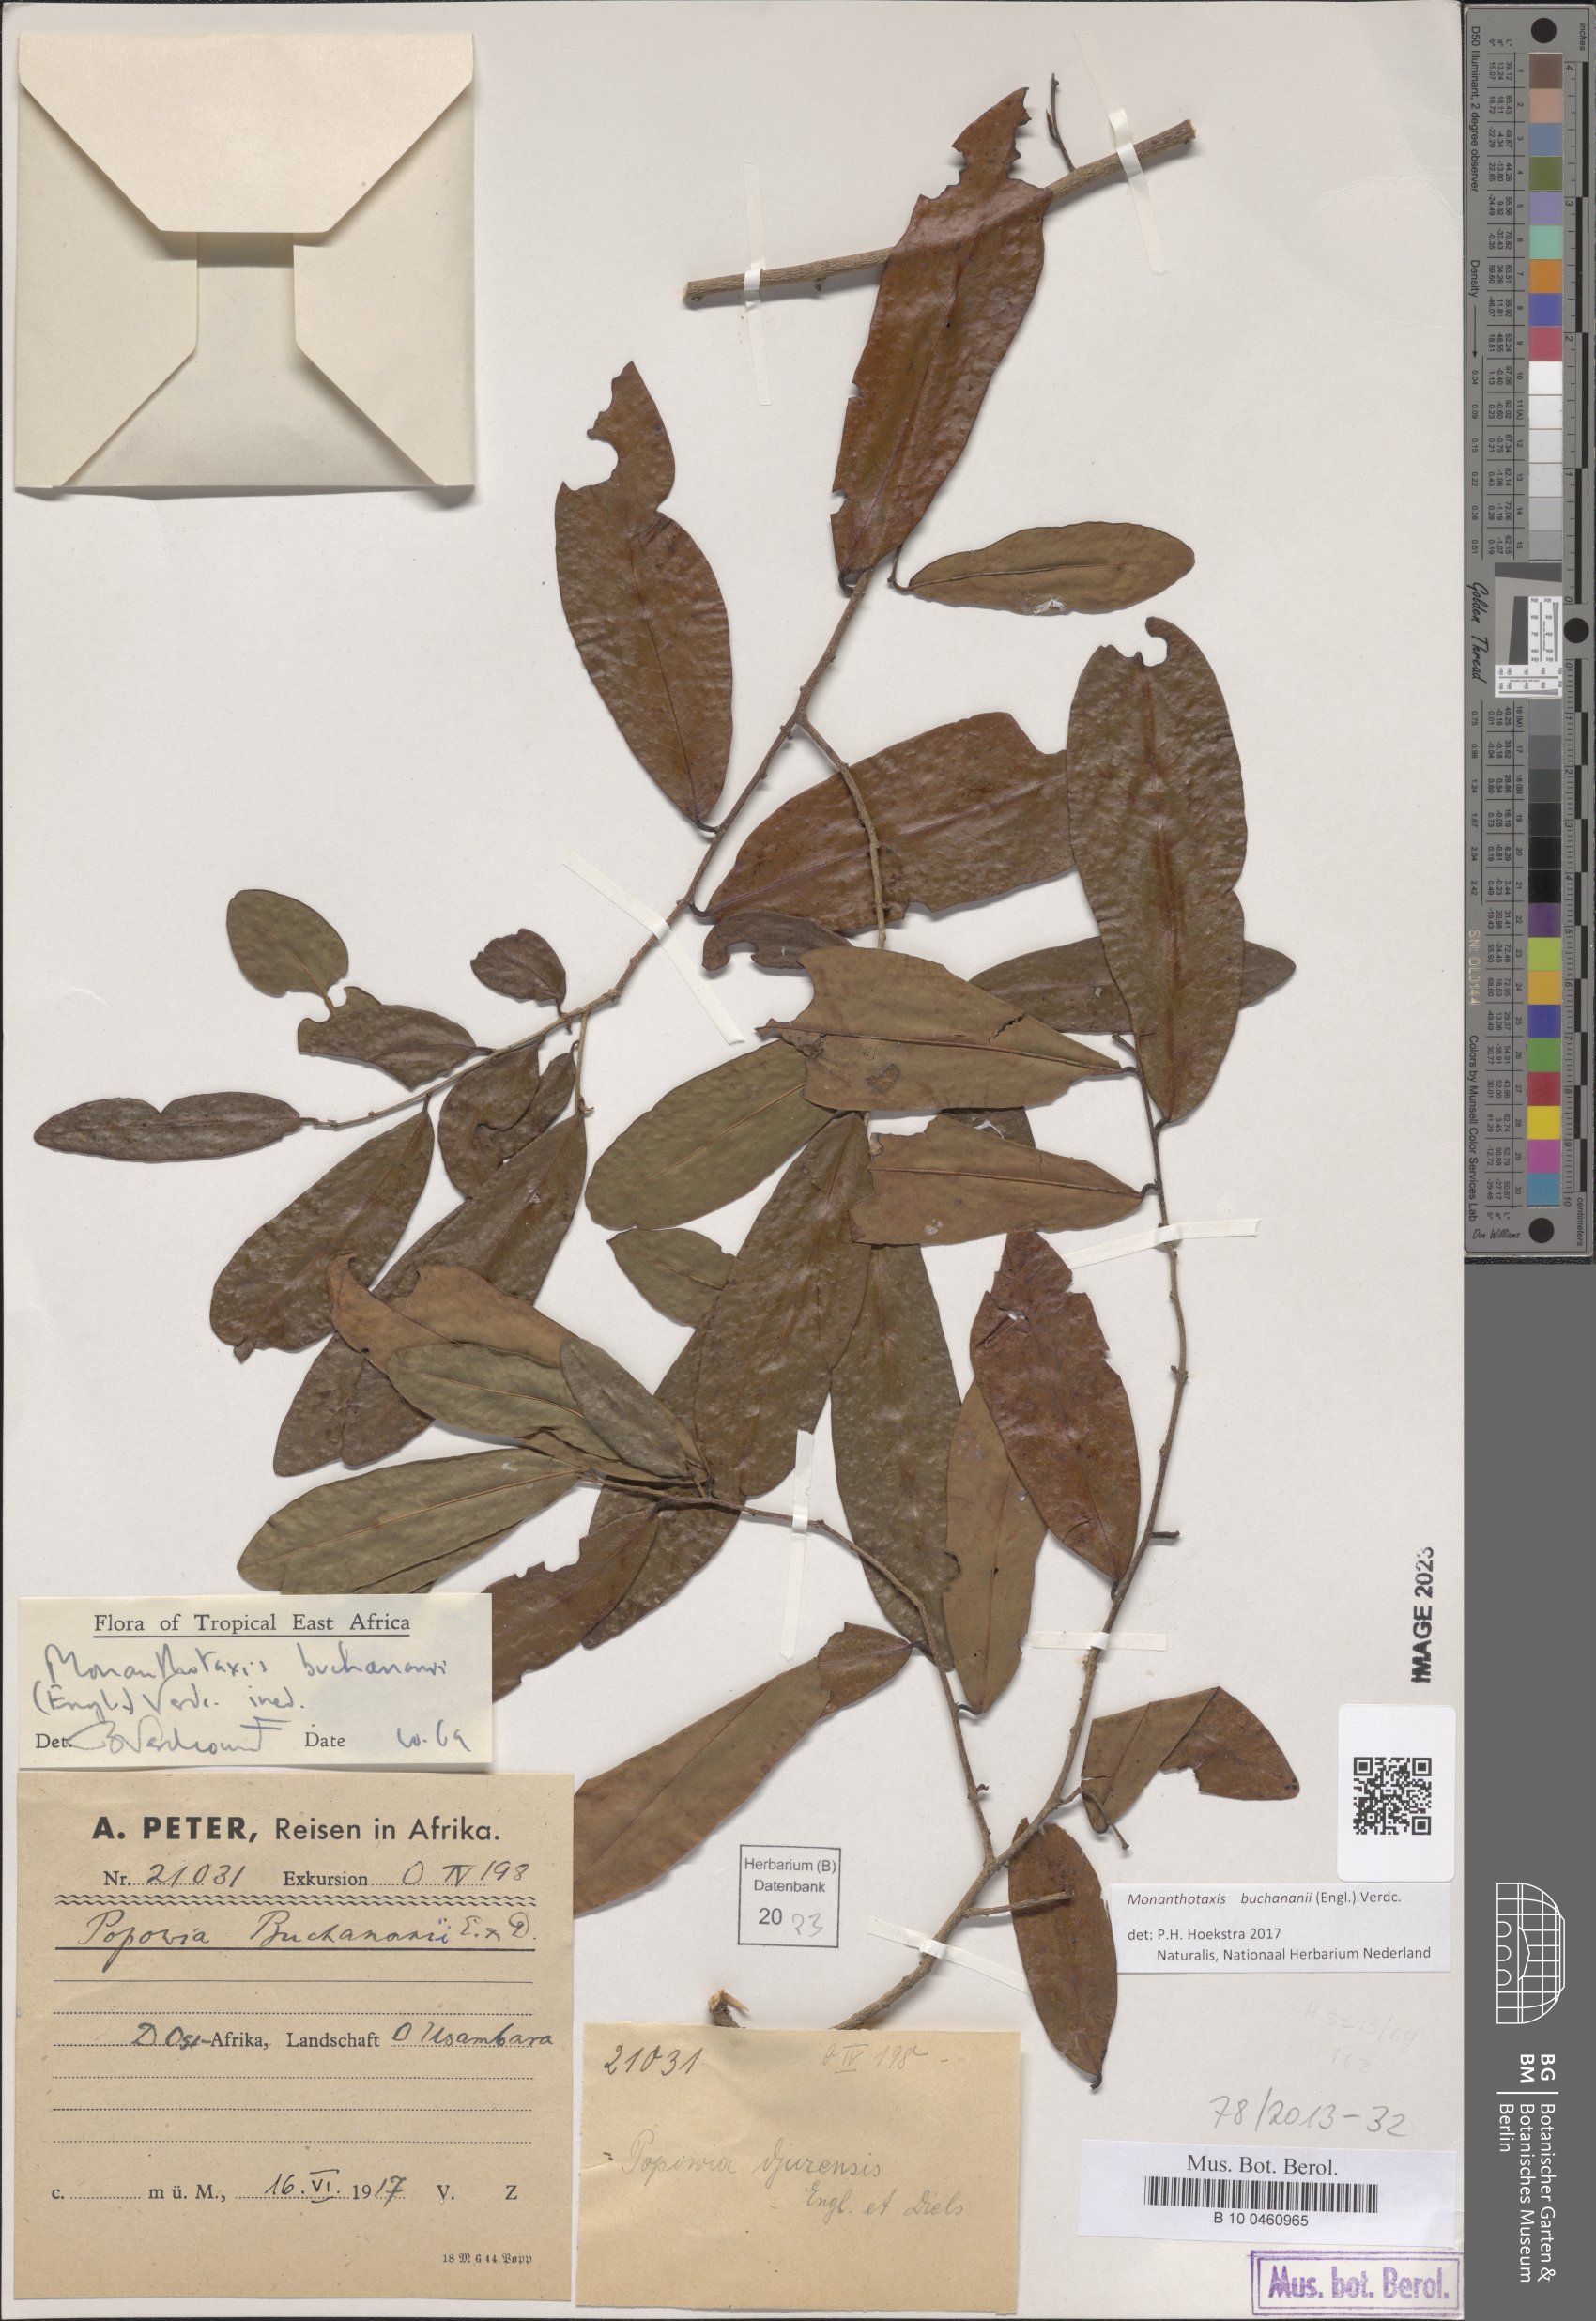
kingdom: Plantae
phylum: Tracheophyta
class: Magnoliopsida
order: Magnoliales
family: Annonaceae
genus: Monanthotaxis
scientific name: Monanthotaxis buchananii
